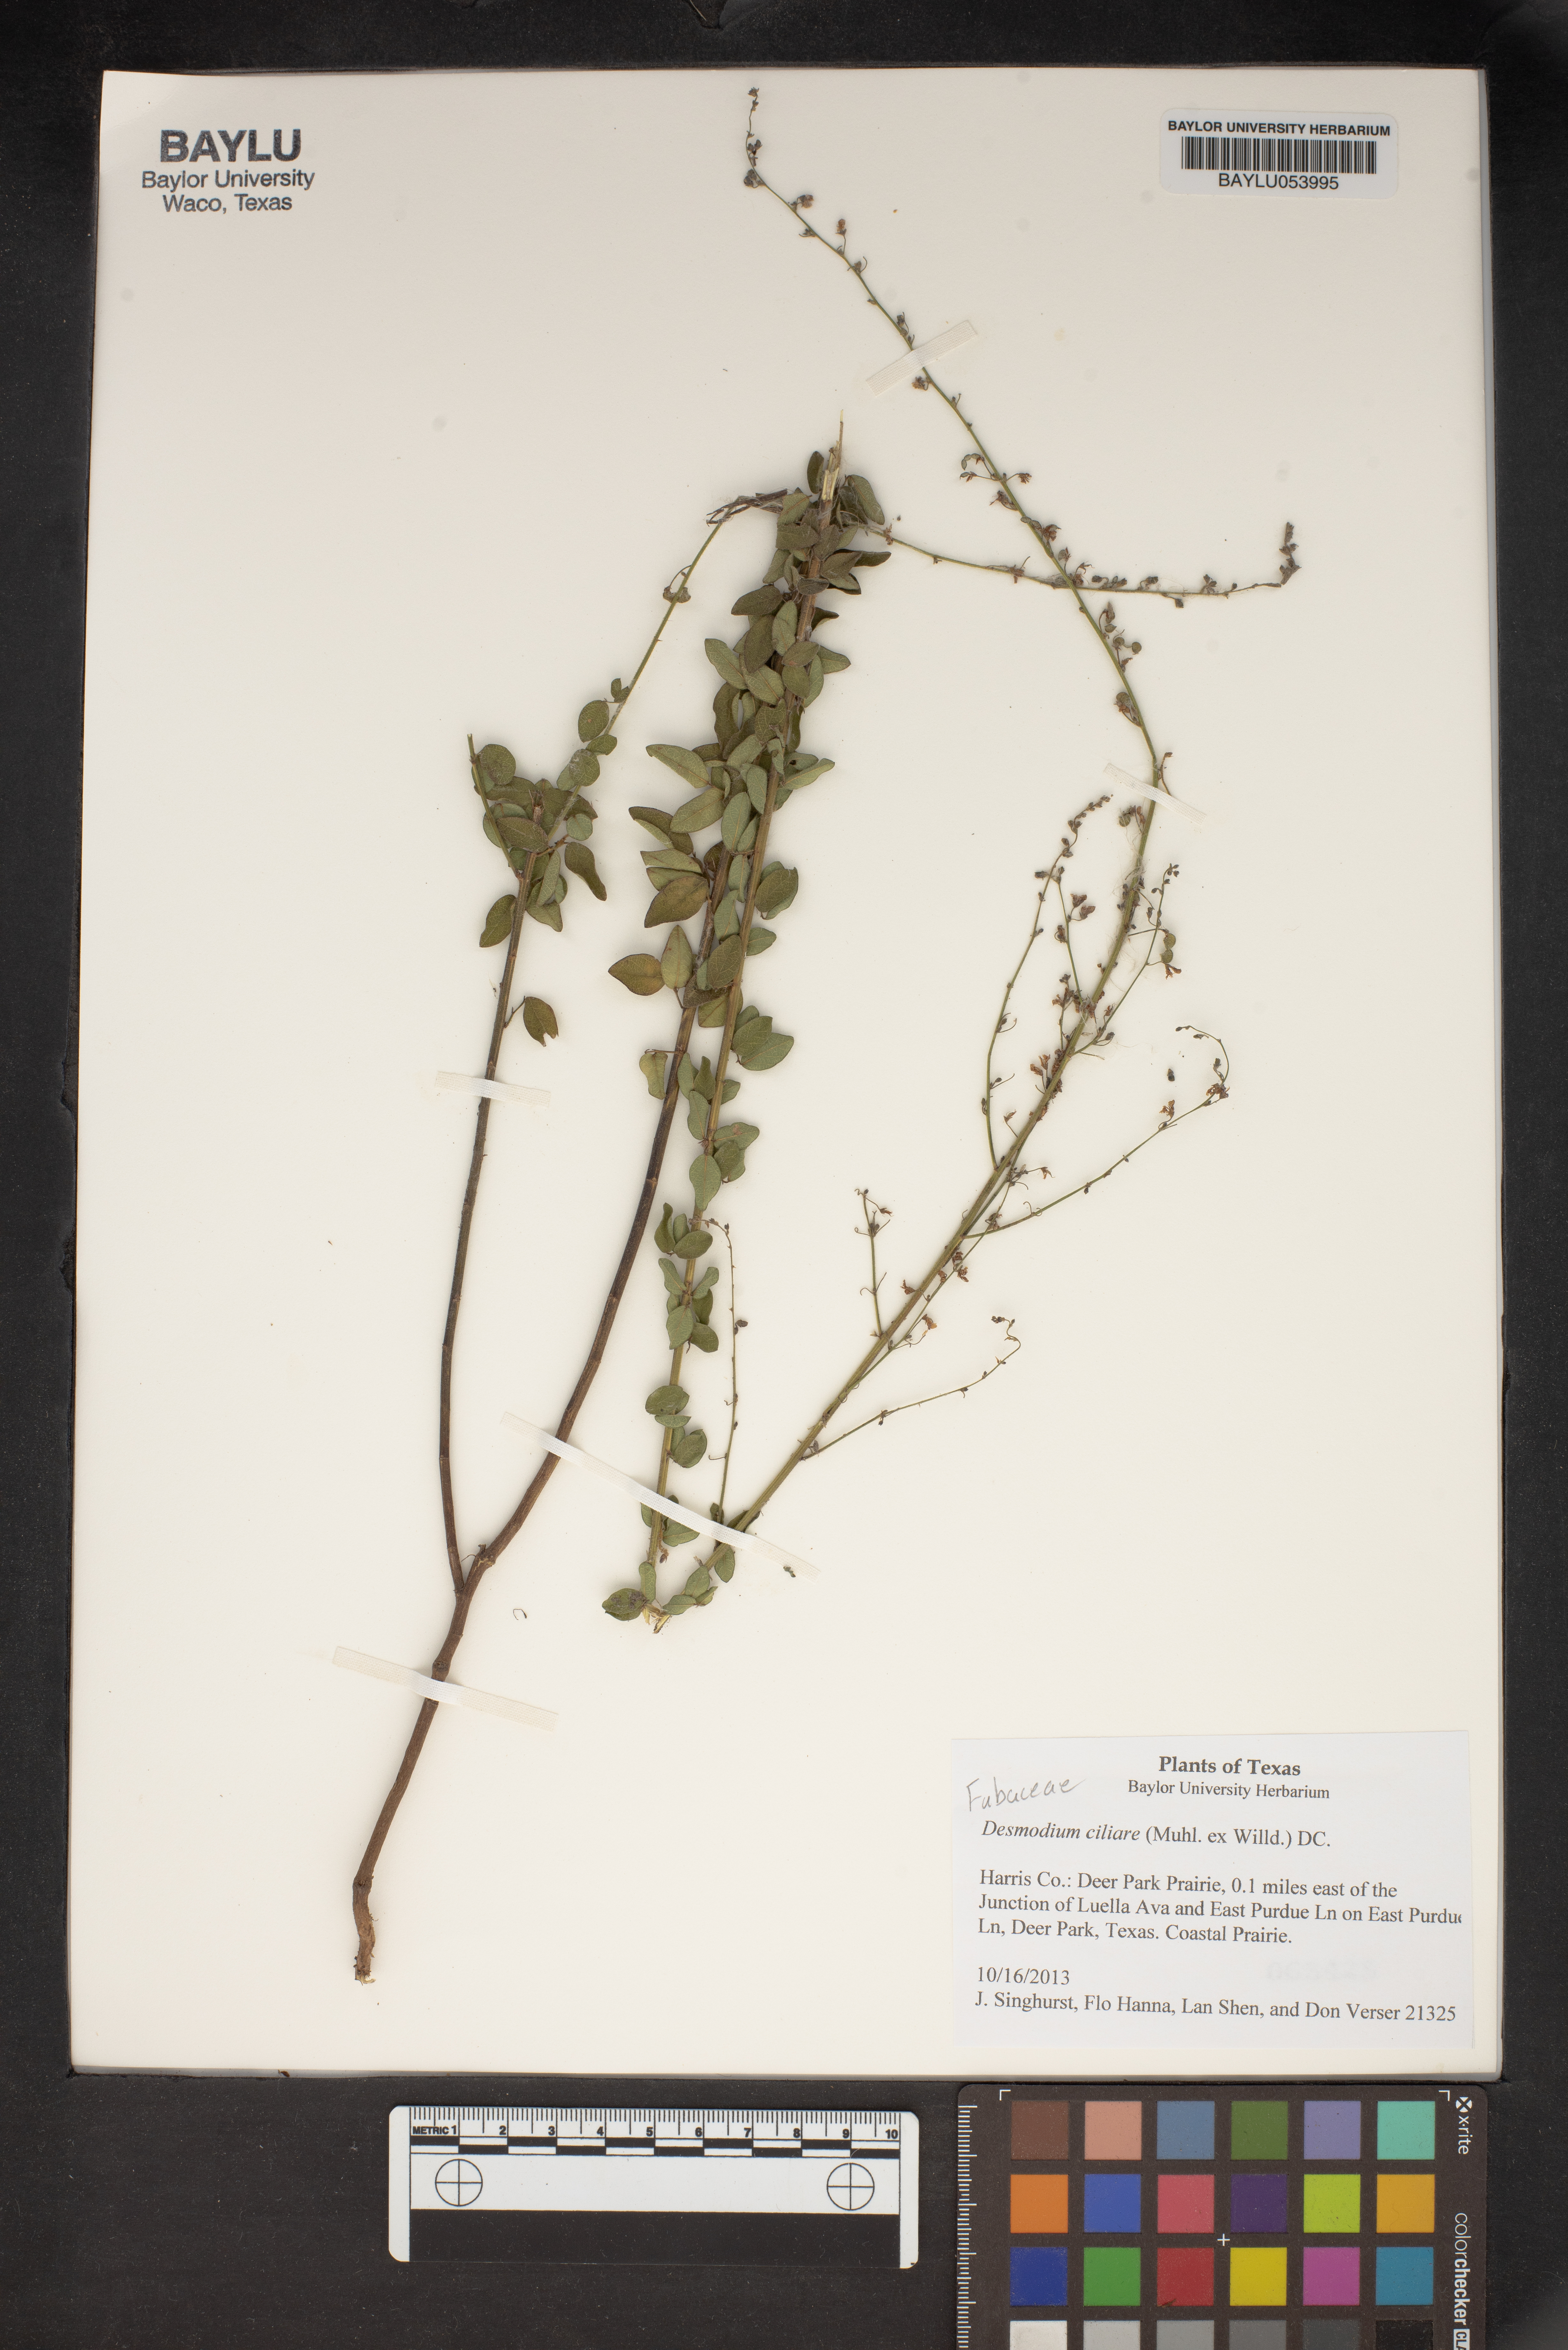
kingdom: Plantae
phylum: Tracheophyta
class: Magnoliopsida
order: Fabales
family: Fabaceae
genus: Desmodium
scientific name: Desmodium ciliare
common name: Hairy small-leaf ticktrefoil
